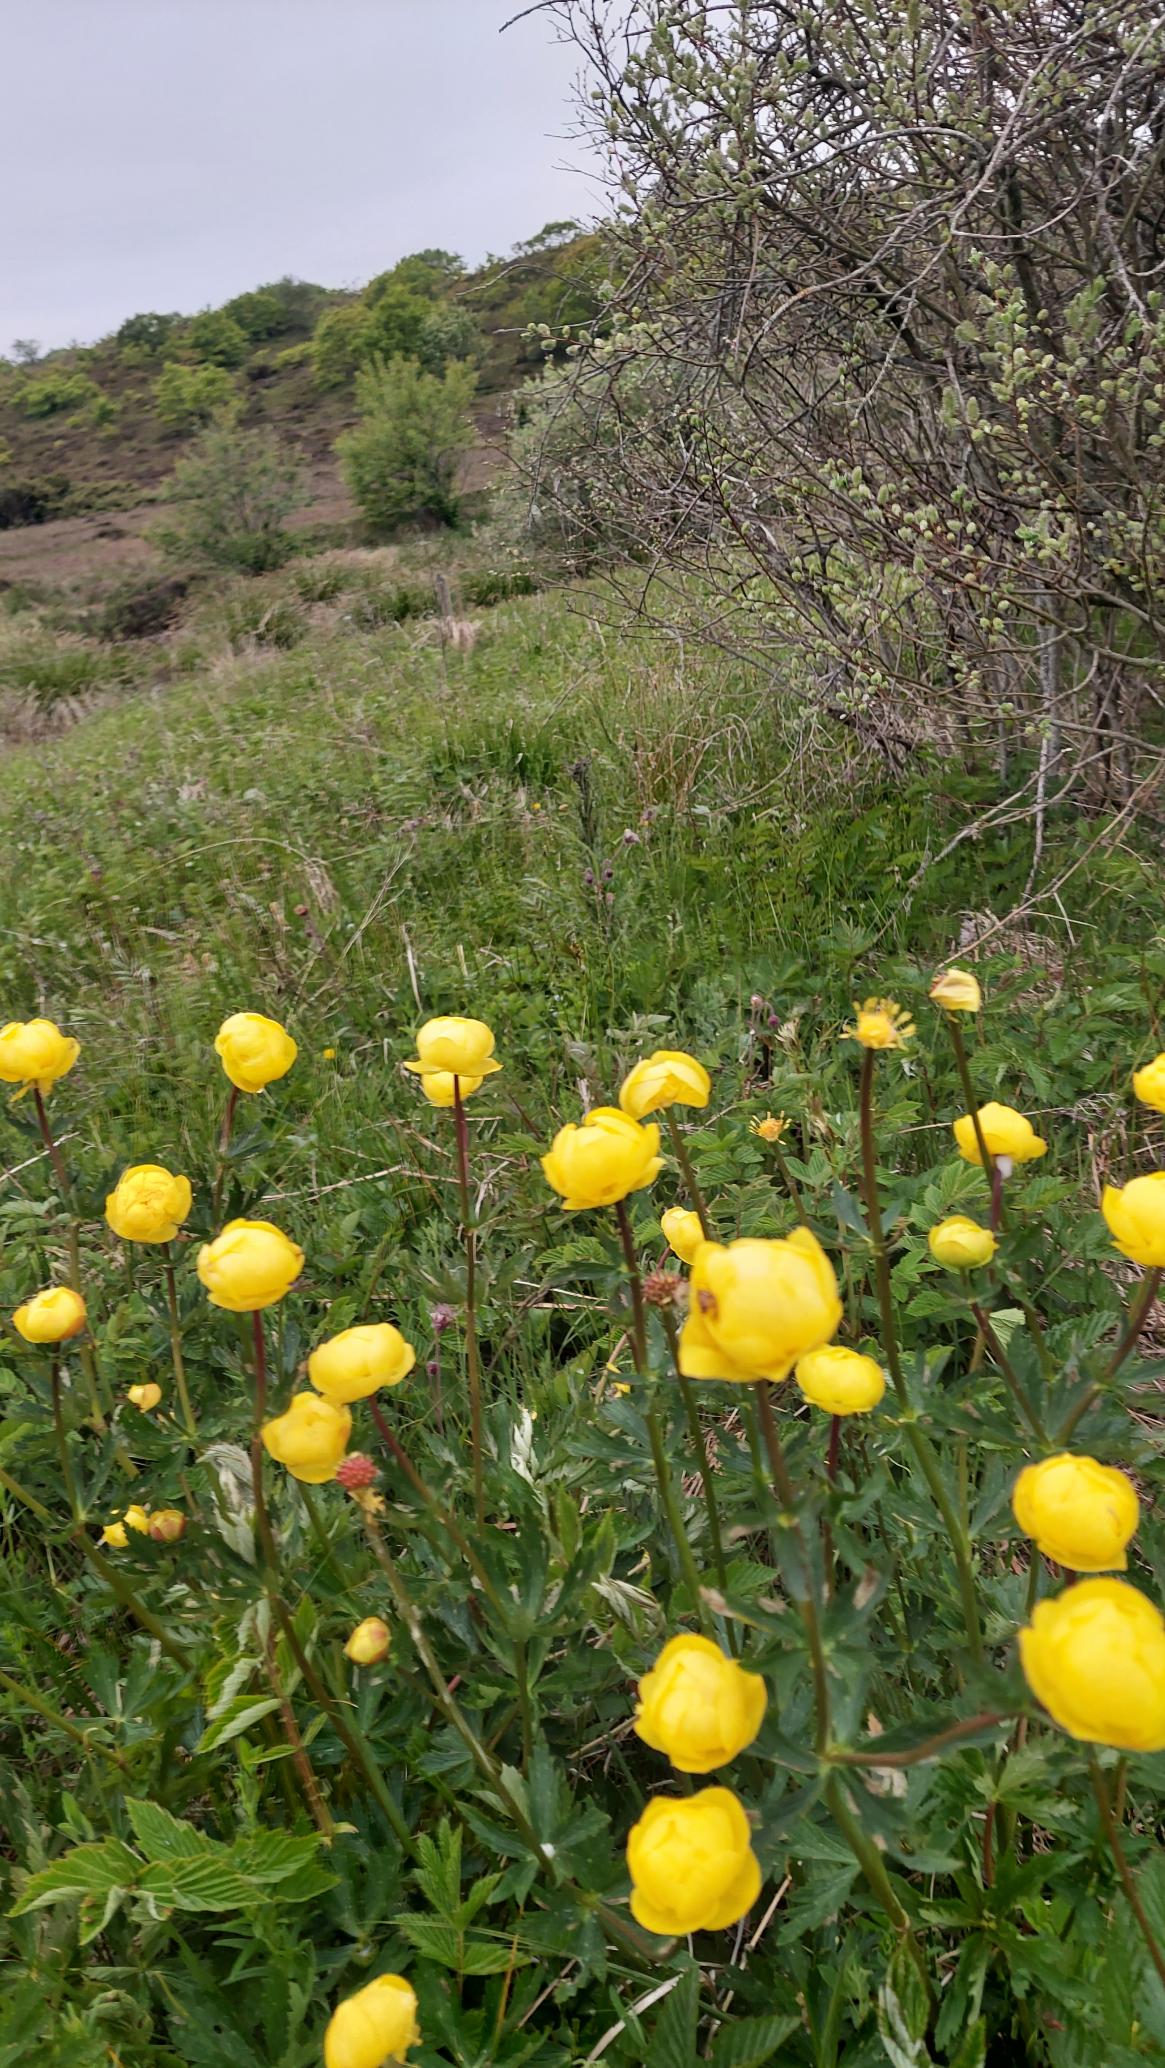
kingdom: Plantae
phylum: Tracheophyta
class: Magnoliopsida
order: Ranunculales
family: Ranunculaceae
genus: Trollius
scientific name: Trollius europaeus
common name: Engblomme
